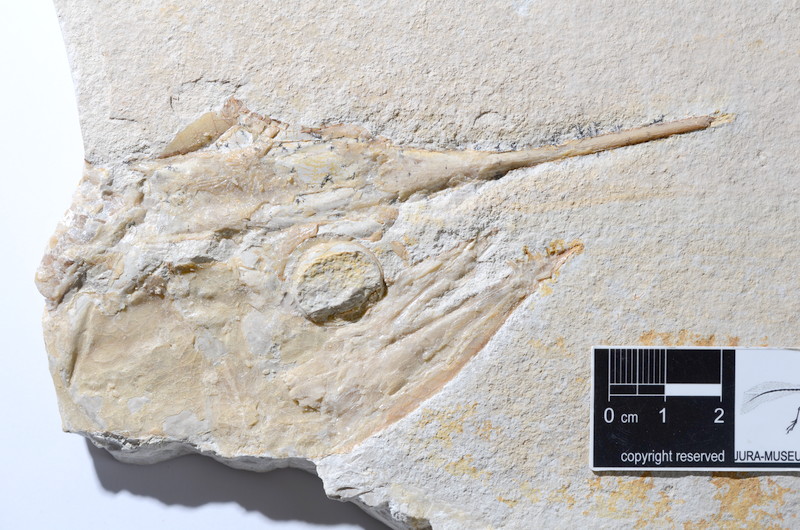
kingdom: Animalia
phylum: Chordata
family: Aspidorhynchidae
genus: Aspidorhynchus
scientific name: Aspidorhynchus acutirostris
